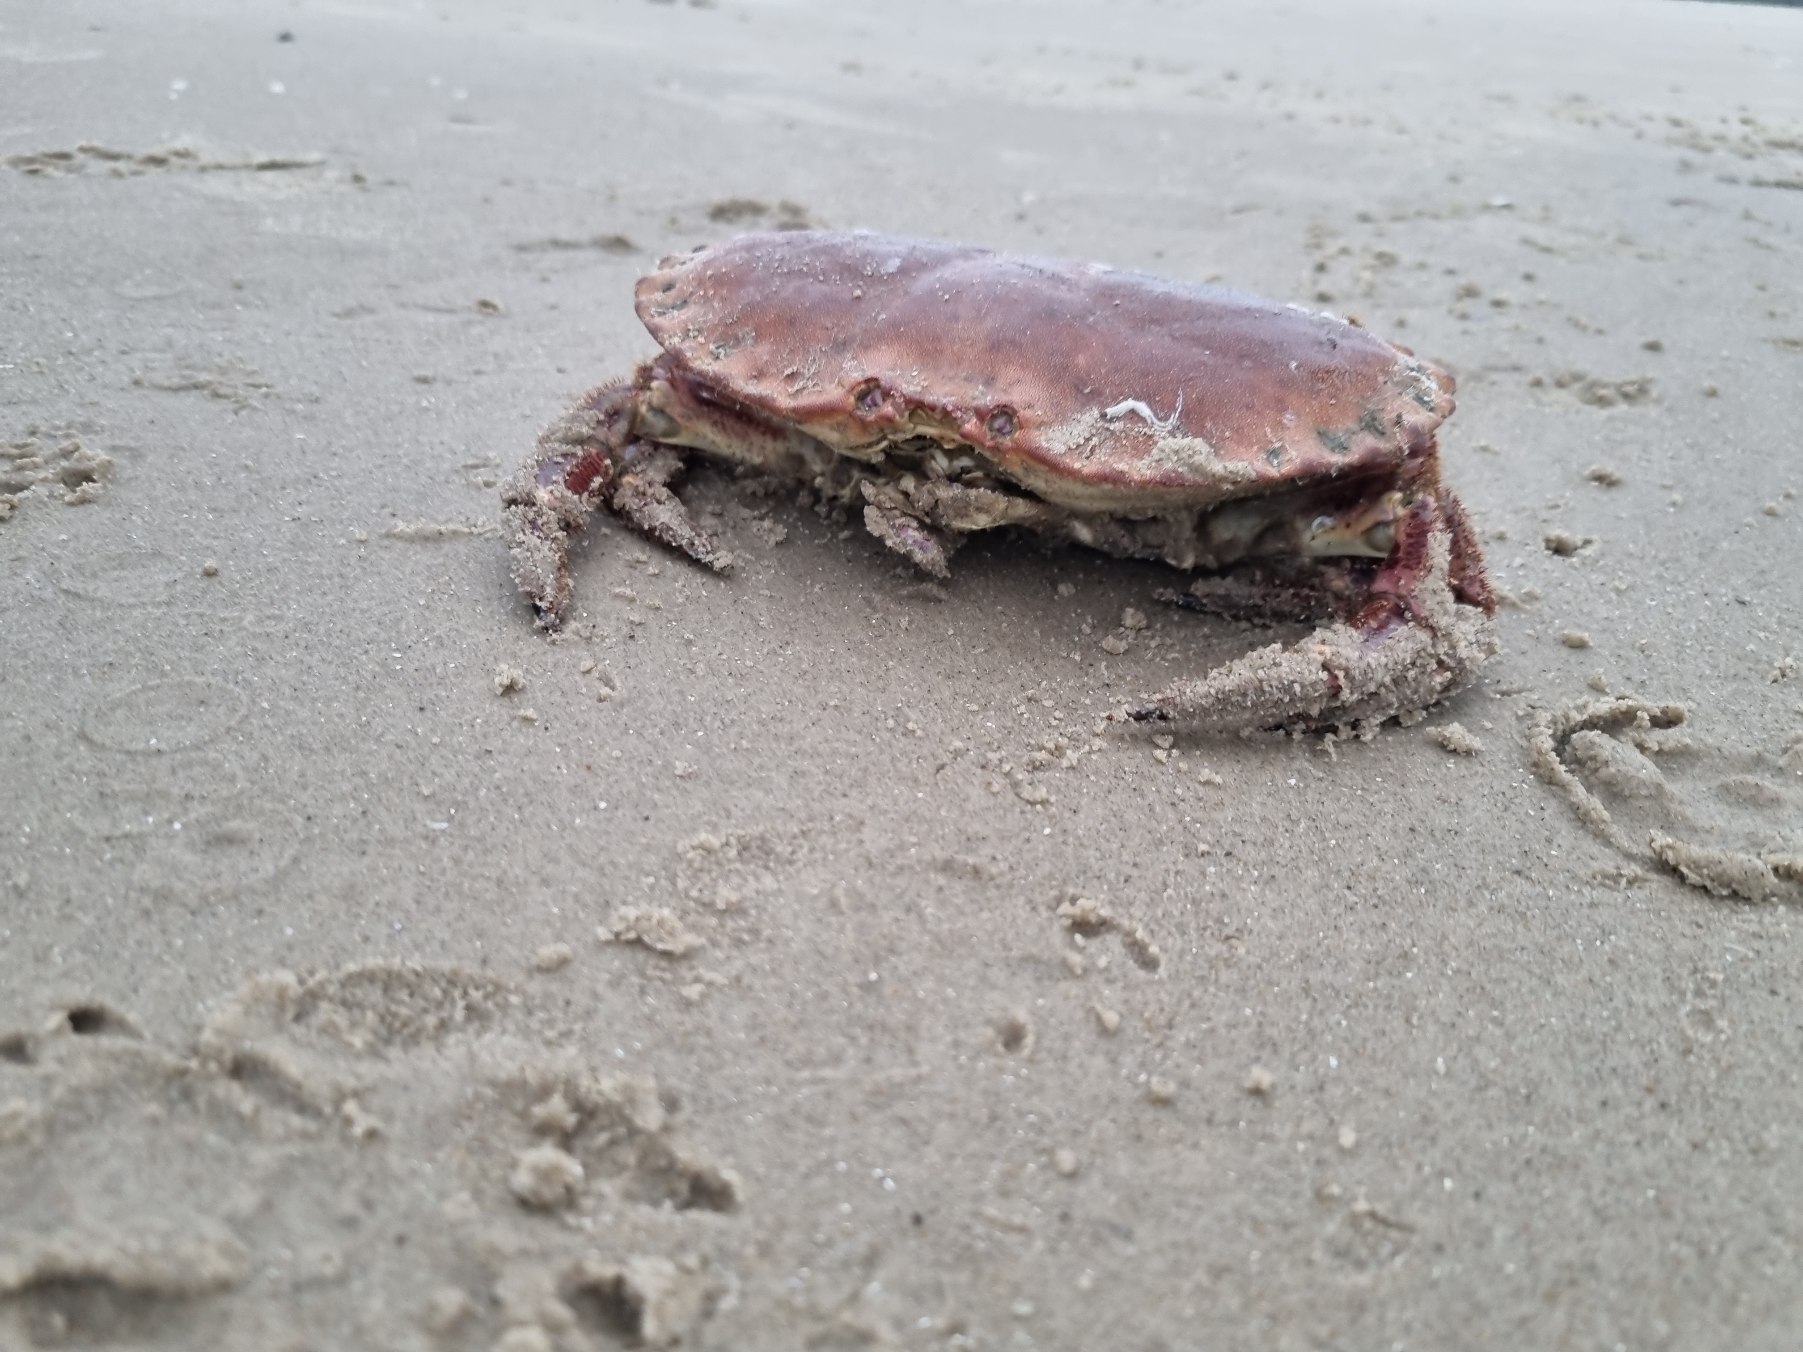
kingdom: Animalia
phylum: Arthropoda
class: Malacostraca
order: Decapoda
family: Cancridae
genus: Cancer
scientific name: Cancer pagurus
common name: Taskekrabbe
